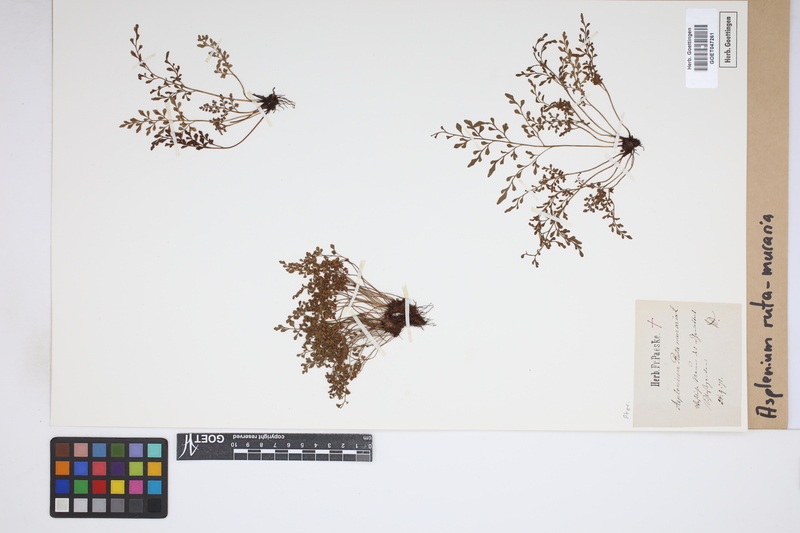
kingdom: Plantae
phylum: Tracheophyta
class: Polypodiopsida
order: Polypodiales
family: Aspleniaceae
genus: Asplenium
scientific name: Asplenium ruta-muraria
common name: Wall-rue
